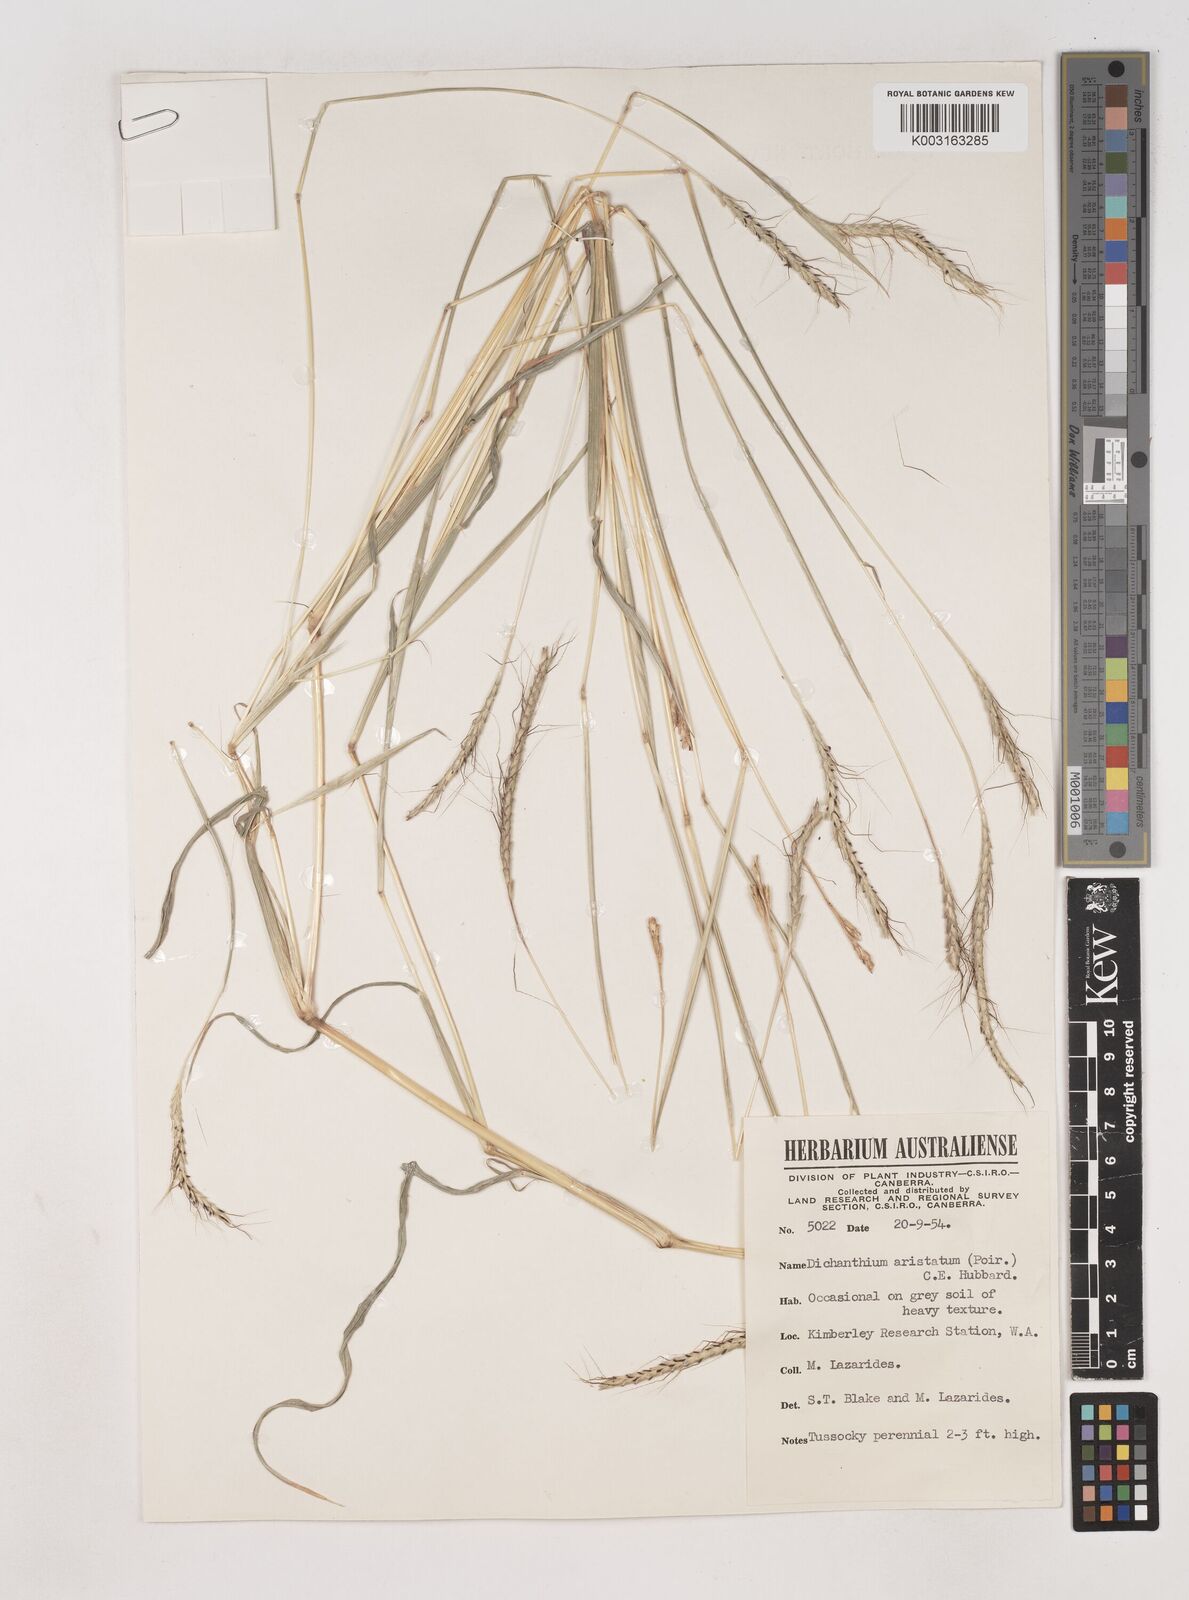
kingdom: Plantae
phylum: Tracheophyta
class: Liliopsida
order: Poales
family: Poaceae
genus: Dichanthium
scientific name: Dichanthium aristatum
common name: Angleton bluestem
